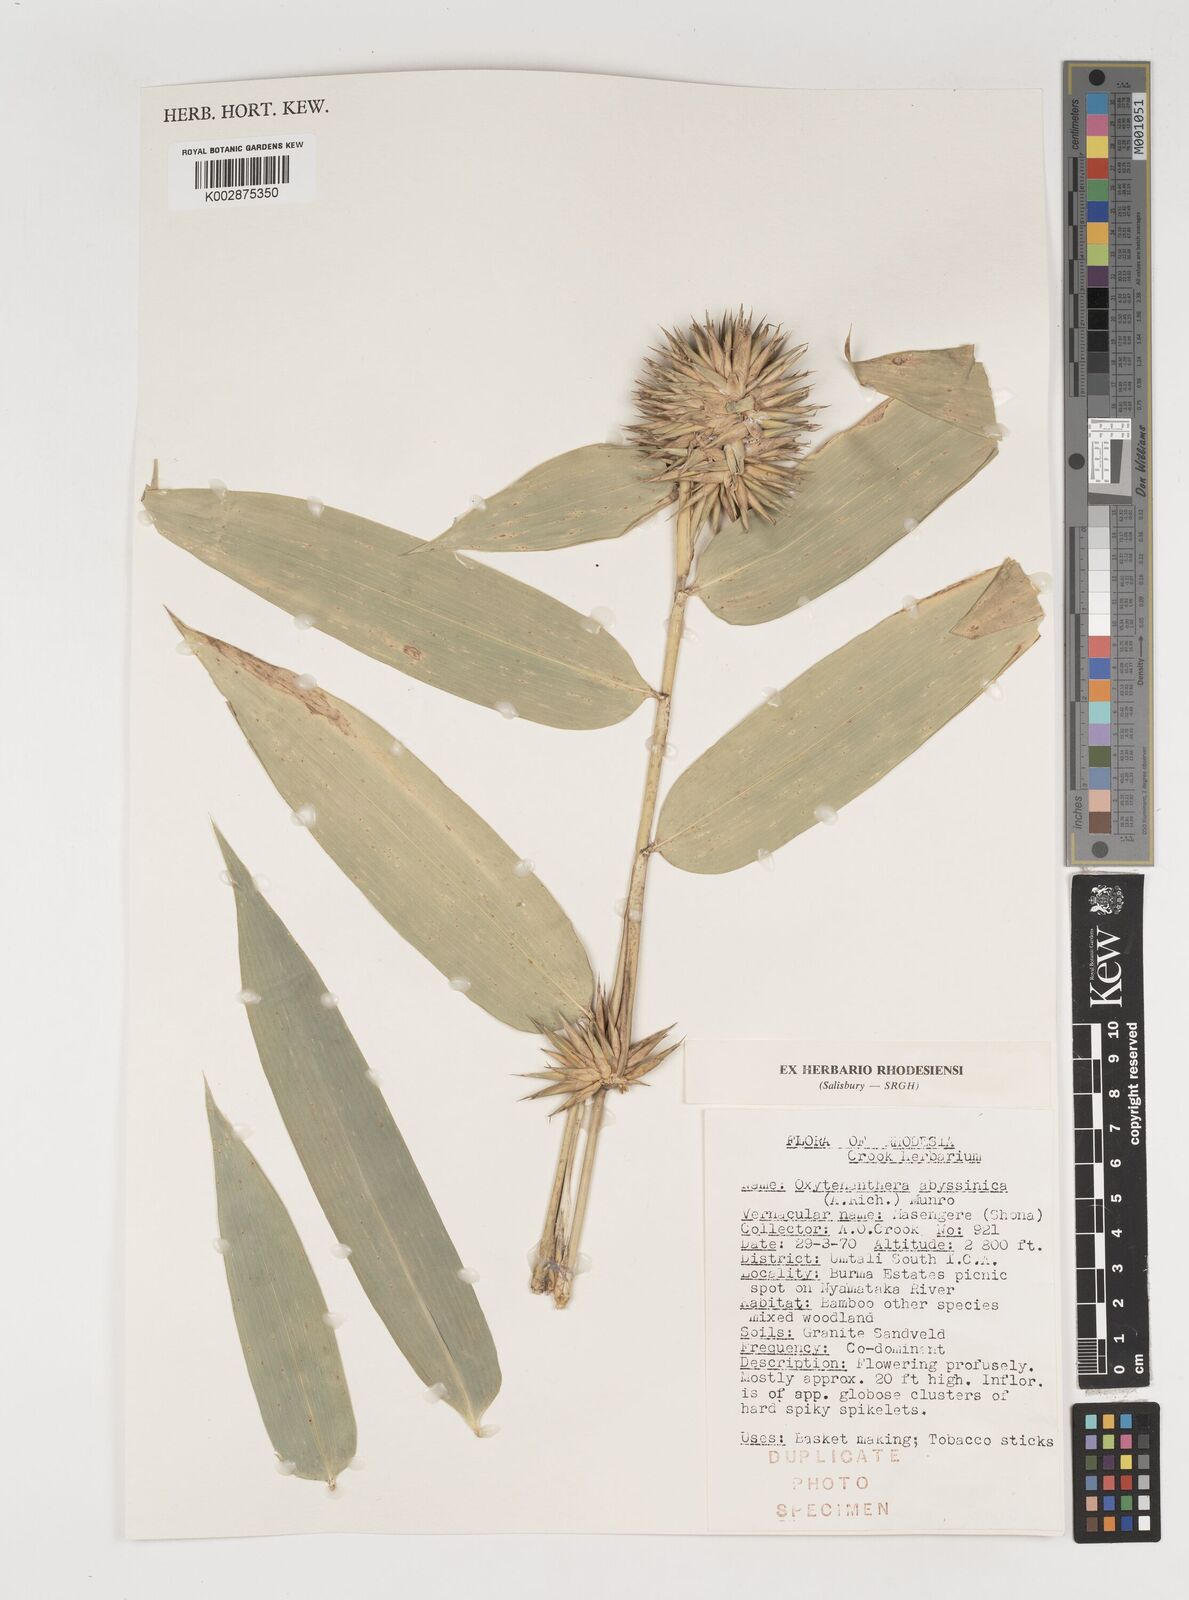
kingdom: Plantae
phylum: Tracheophyta
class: Liliopsida
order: Poales
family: Poaceae
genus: Oxytenanthera
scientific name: Oxytenanthera abyssinica
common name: Wine bamboo
